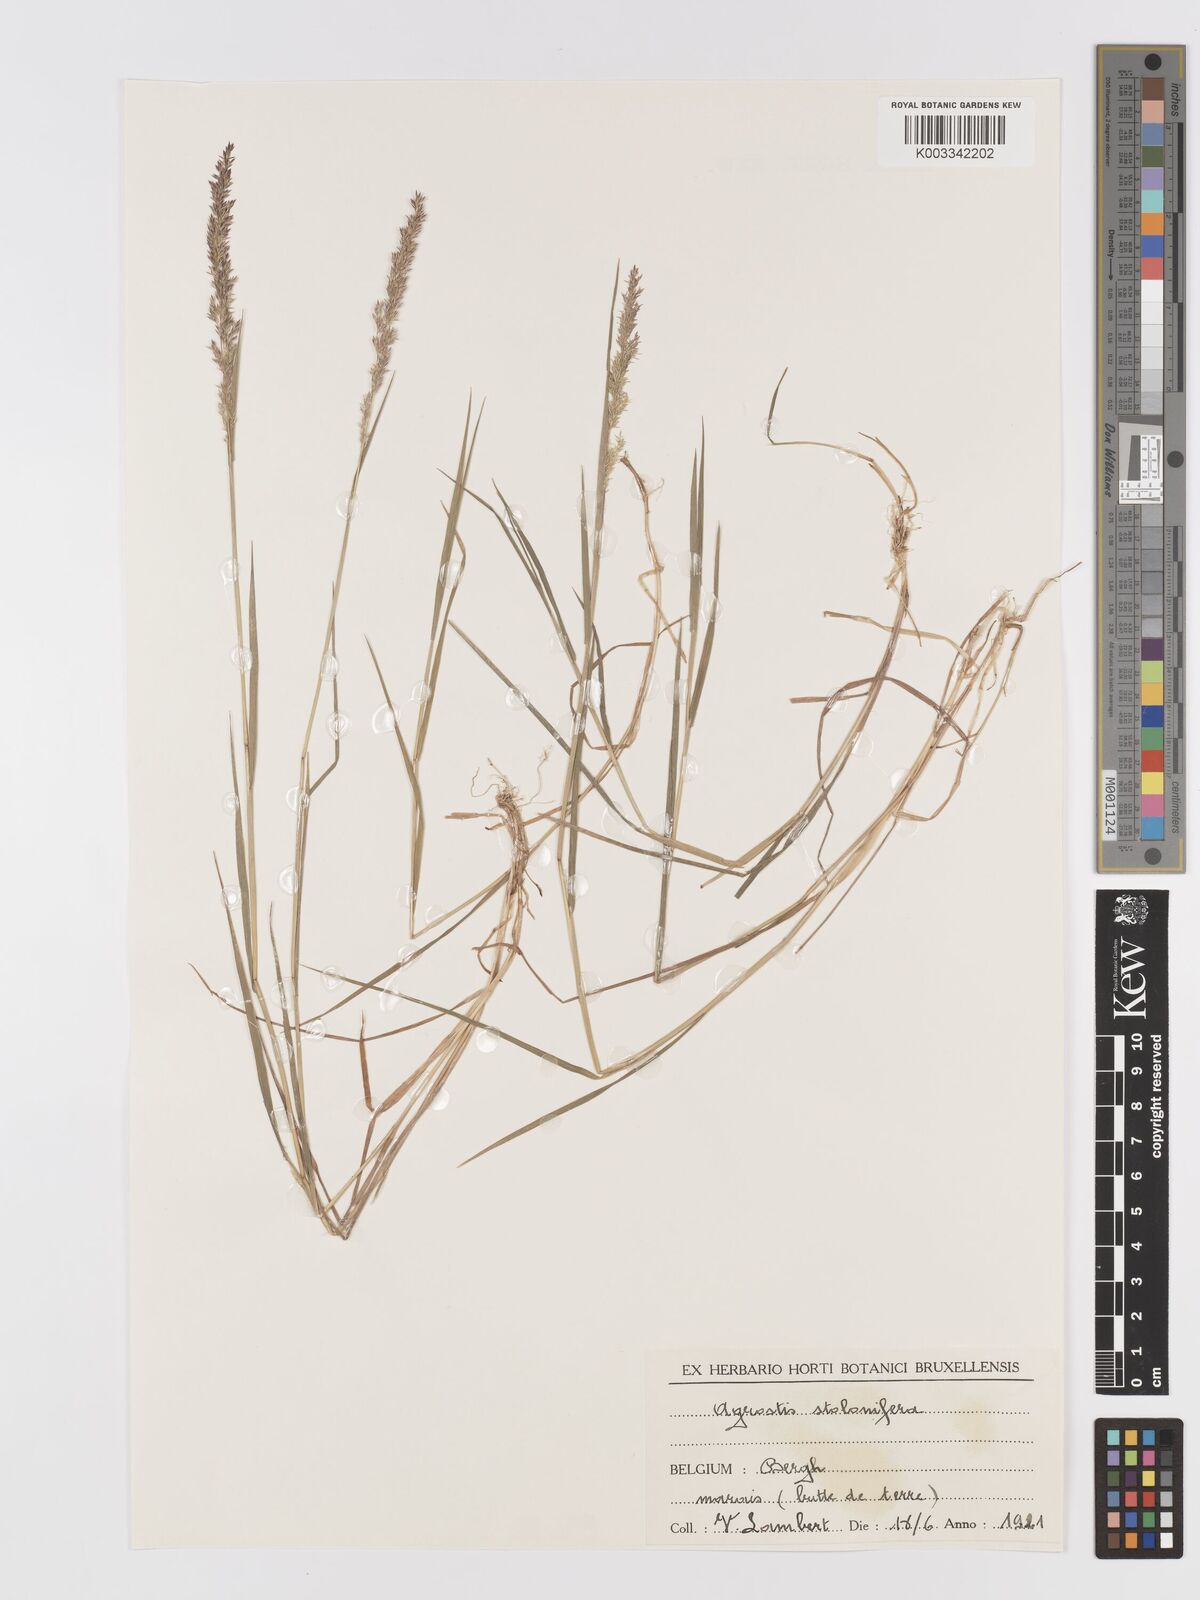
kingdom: Plantae
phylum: Tracheophyta
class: Liliopsida
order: Poales
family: Poaceae
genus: Agrostis
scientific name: Agrostis stolonifera
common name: Creeping bentgrass
